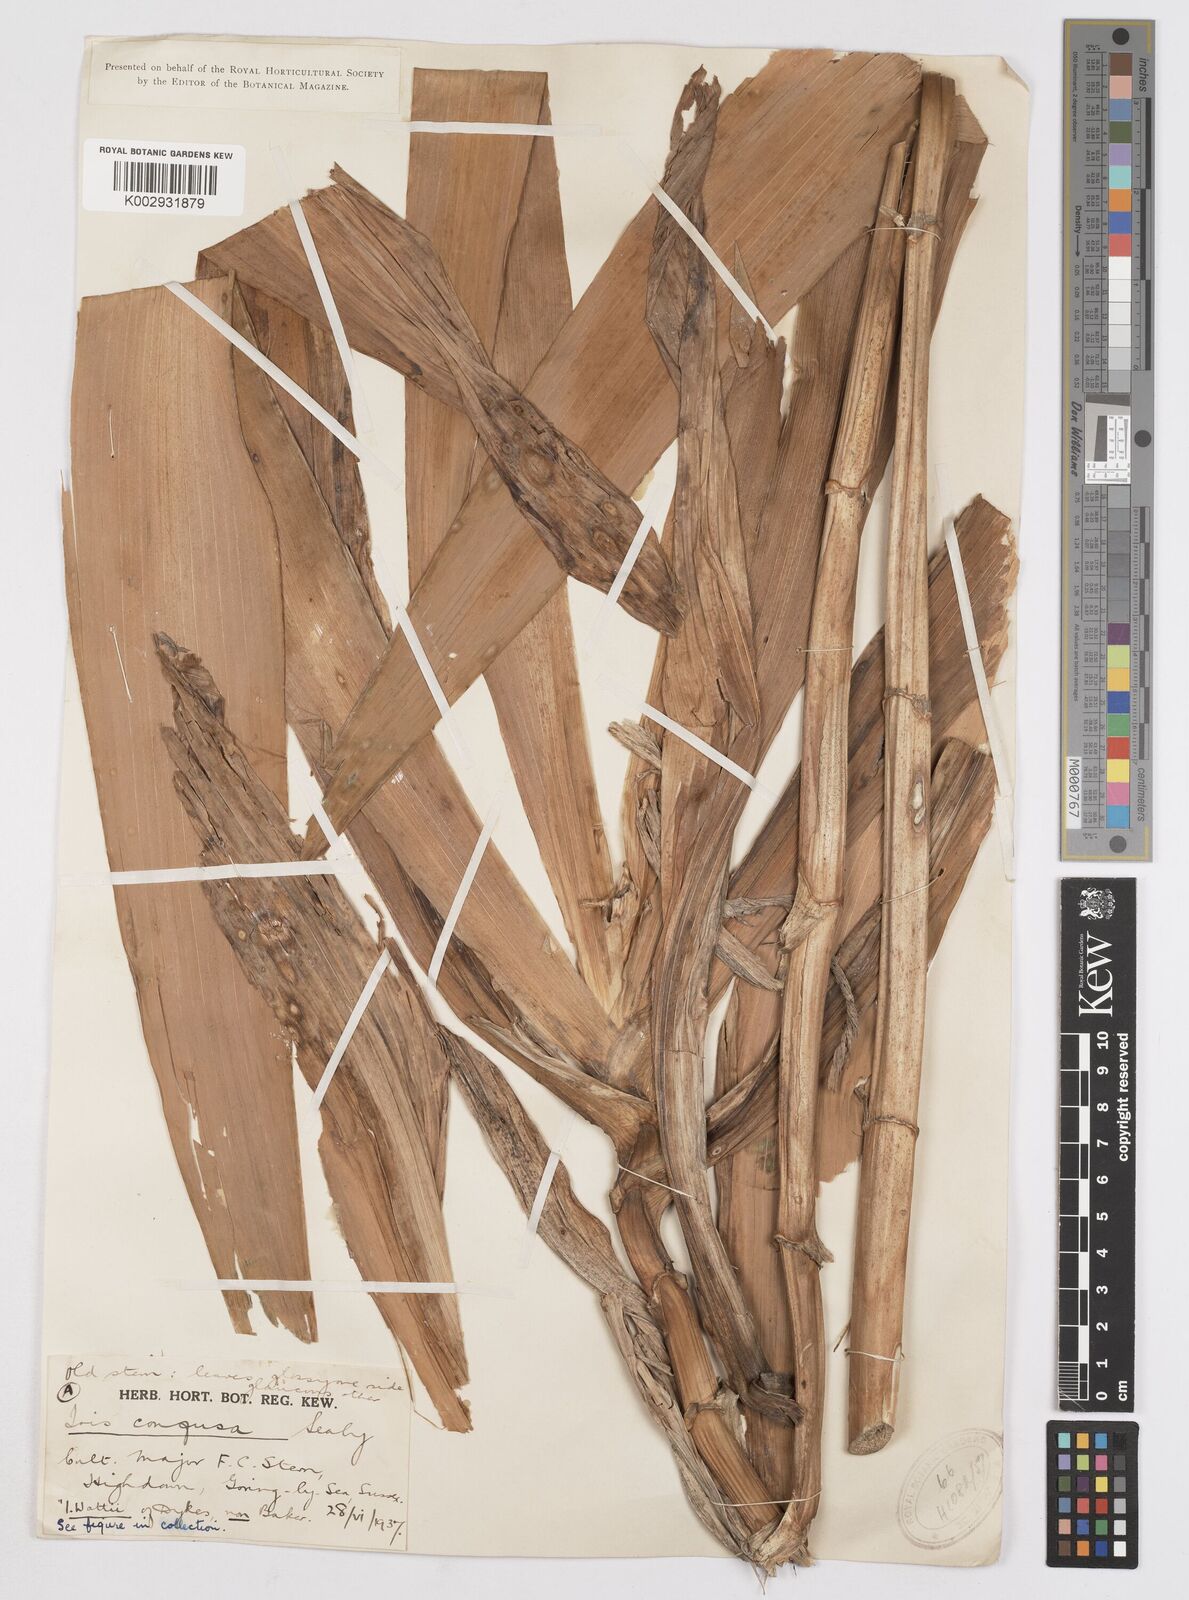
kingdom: Plantae
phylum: Tracheophyta
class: Liliopsida
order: Asparagales
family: Iridaceae
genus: Iris
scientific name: Iris confusa
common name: Flat bamboo-orchid
